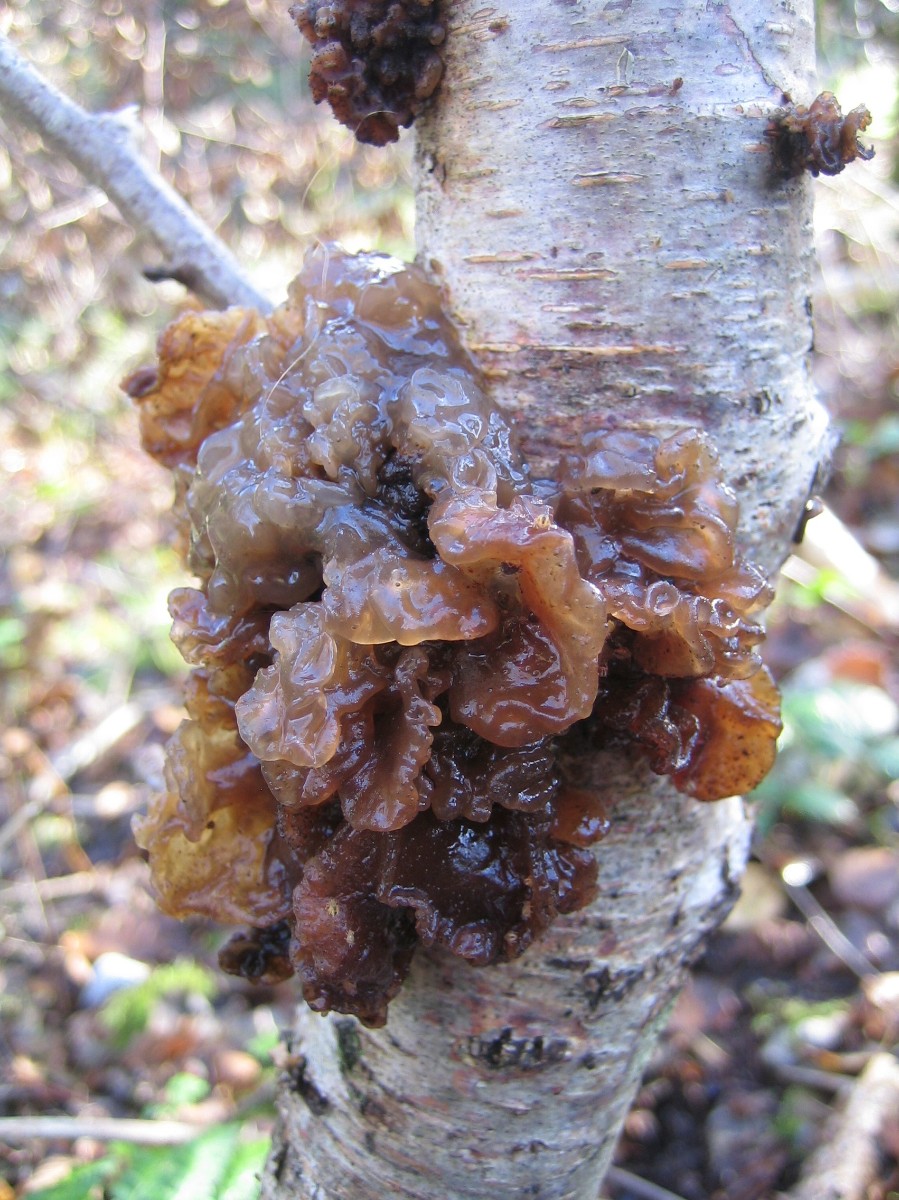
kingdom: Fungi
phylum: Basidiomycota
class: Tremellomycetes
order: Tremellales
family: Tremellaceae
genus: Phaeotremella
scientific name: Phaeotremella frondosa
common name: kæmpe-bævresvamp
